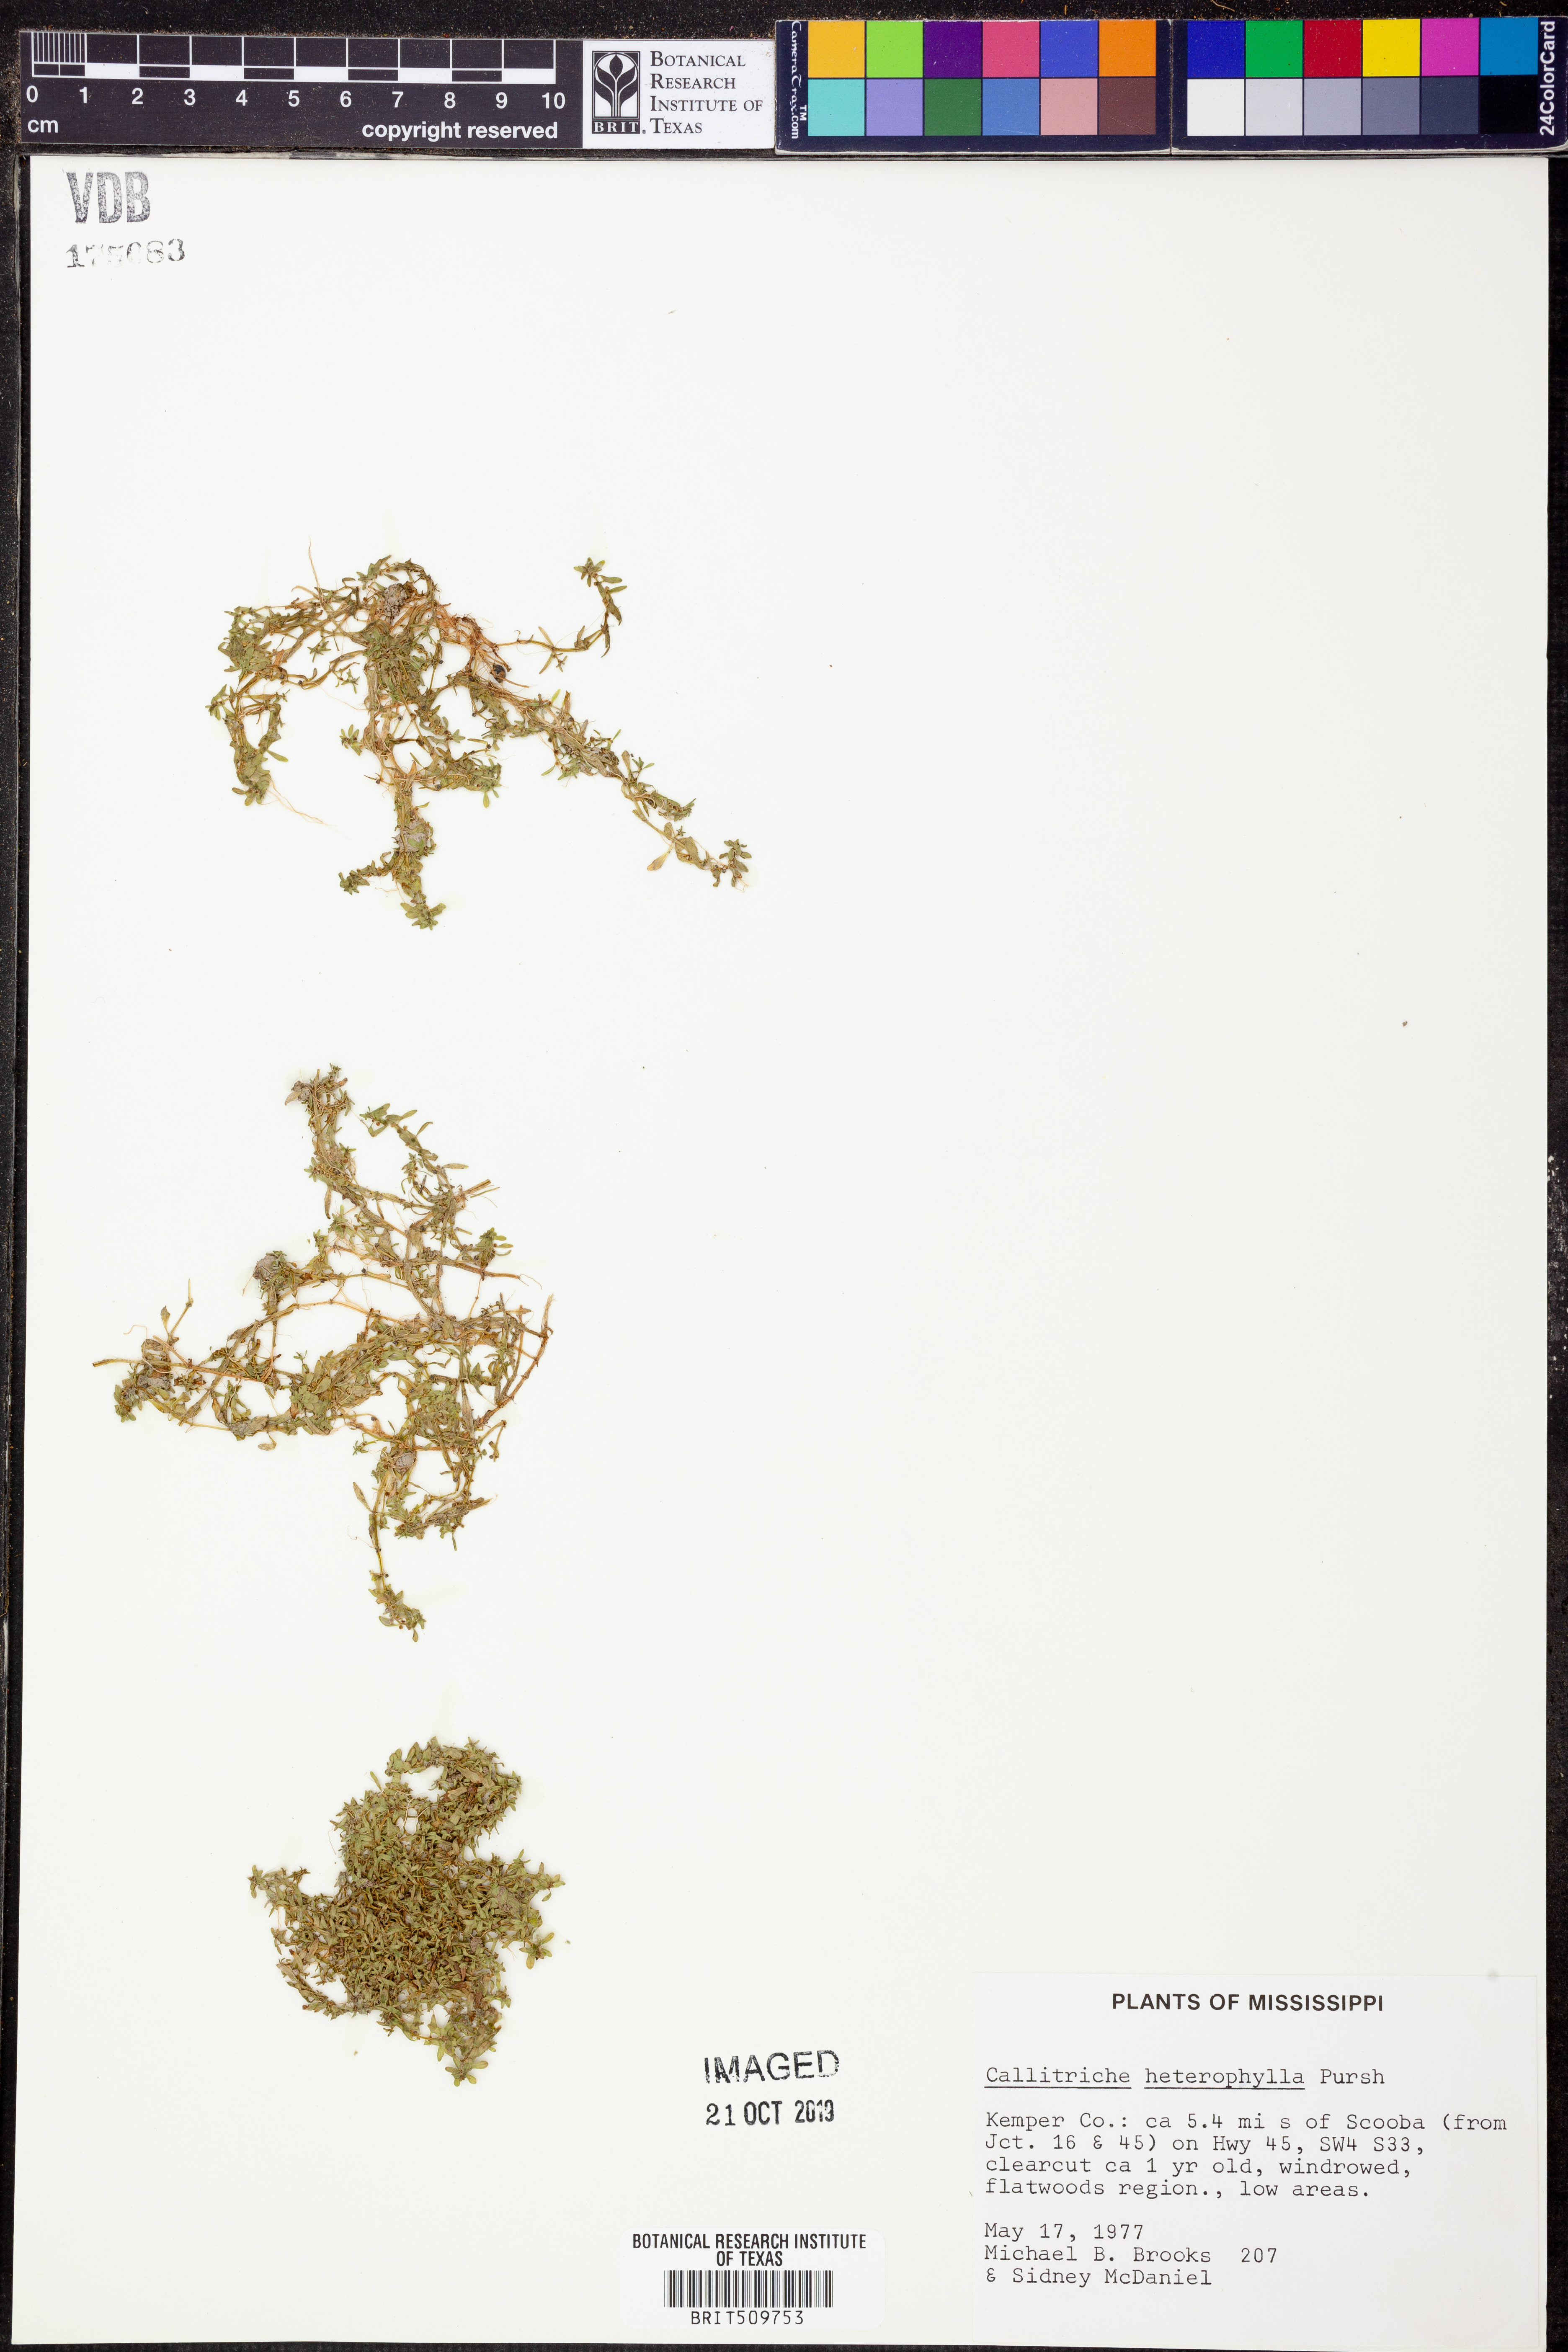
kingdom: Plantae
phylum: Tracheophyta
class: Magnoliopsida
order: Lamiales
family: Plantaginaceae
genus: Callitriche
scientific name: Callitriche heterophylla
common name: Two-headed water-starwort
